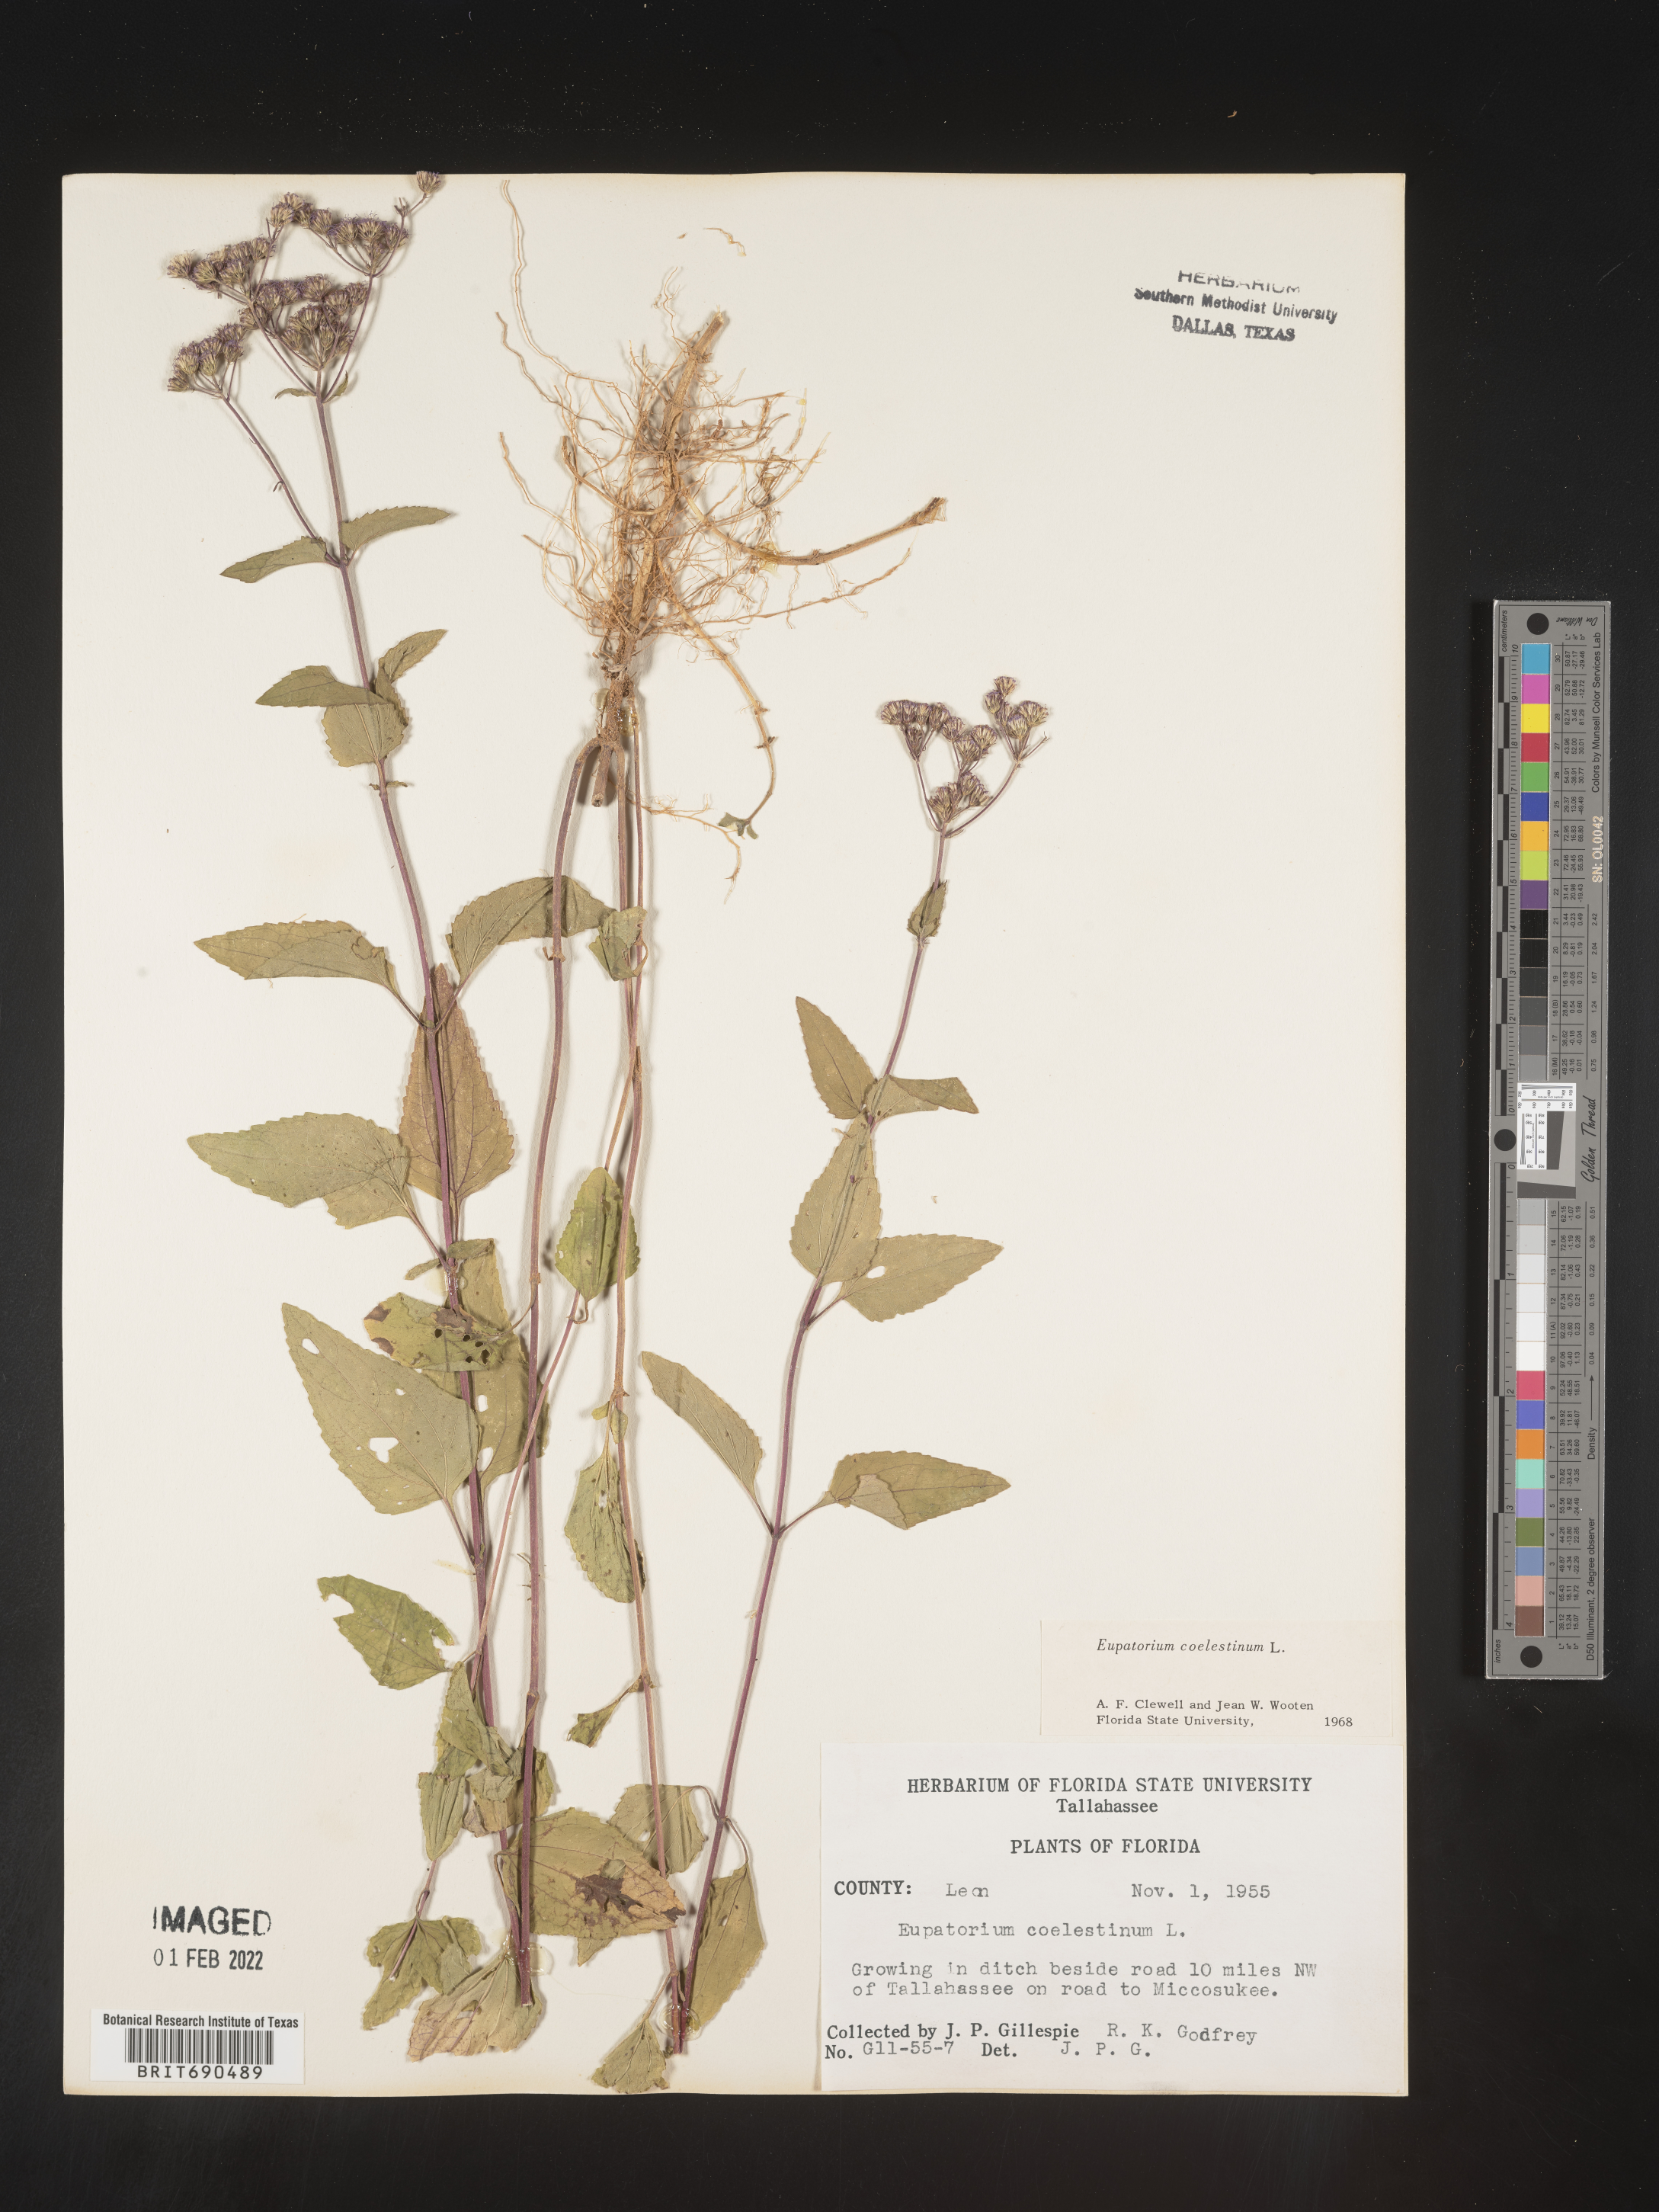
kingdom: Plantae
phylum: Tracheophyta
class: Magnoliopsida
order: Asterales
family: Asteraceae
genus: Conoclinium
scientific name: Conoclinium coelestinum
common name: Blue mistflower
